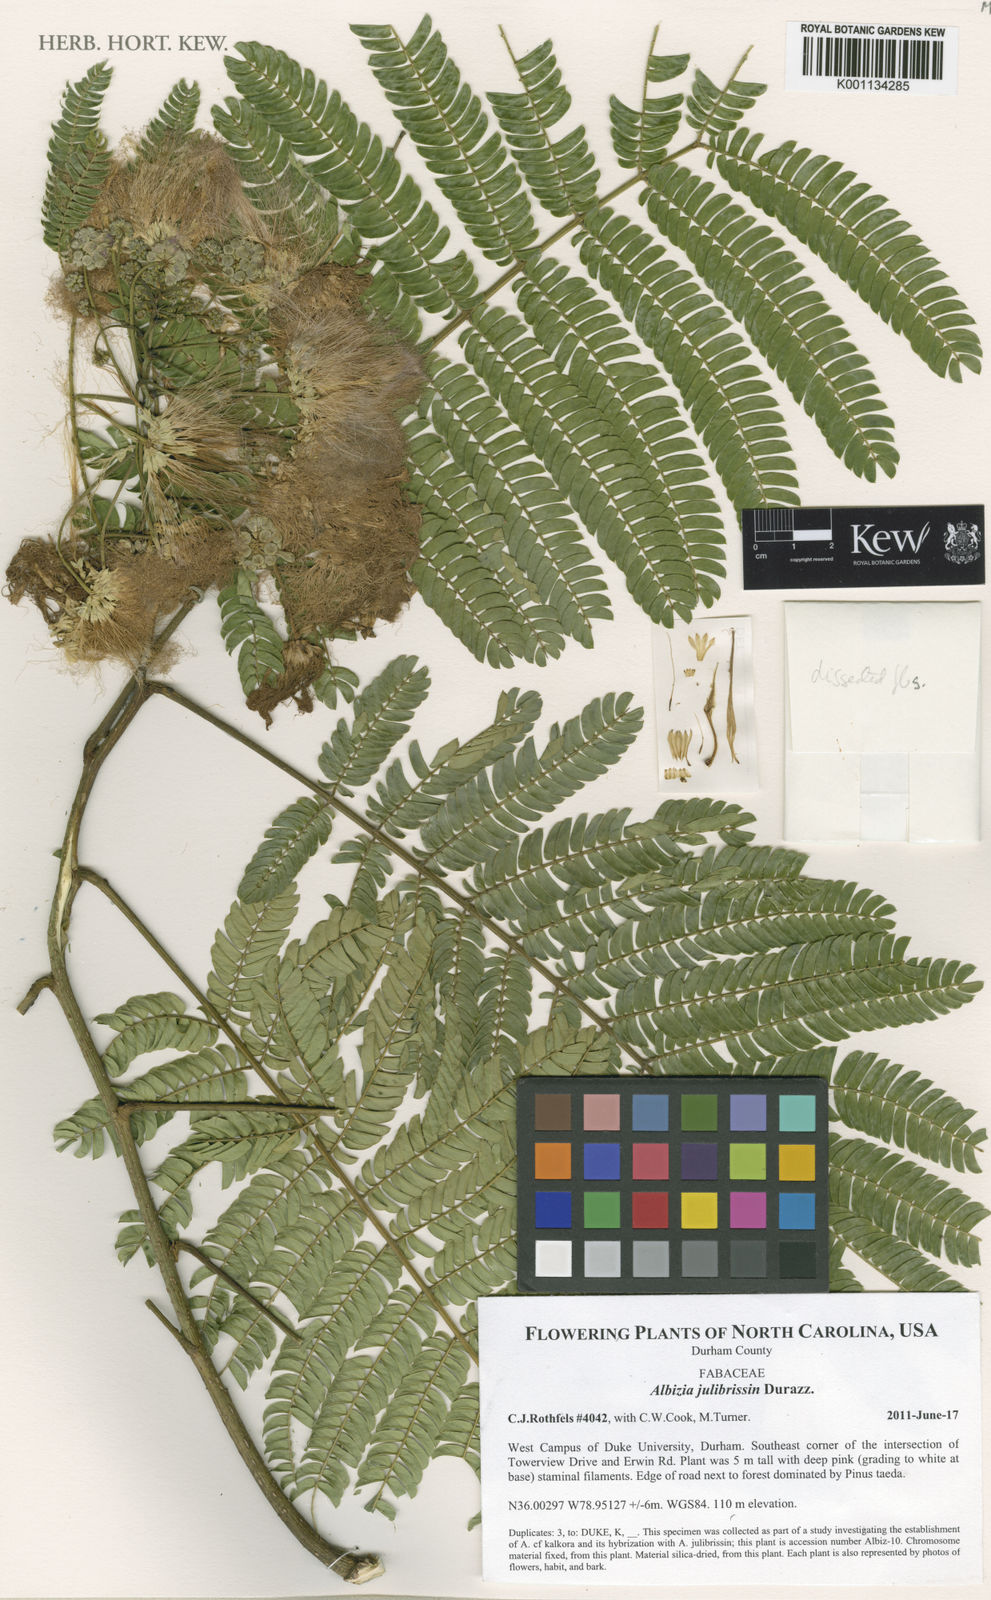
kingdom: Plantae
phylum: Tracheophyta
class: Magnoliopsida
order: Fabales
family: Fabaceae
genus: Albizia
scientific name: Albizia julibrissin
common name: Silktree
